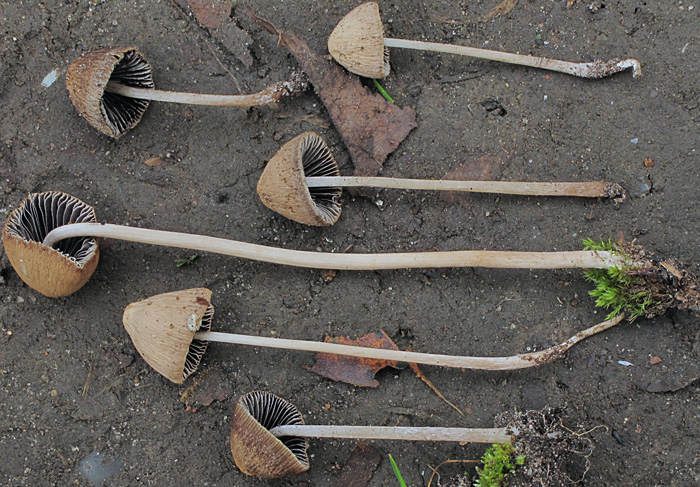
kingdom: Fungi
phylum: Basidiomycota
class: Agaricomycetes
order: Agaricales
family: Psathyrellaceae
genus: Psathyrella
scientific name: Psathyrella longicauda
